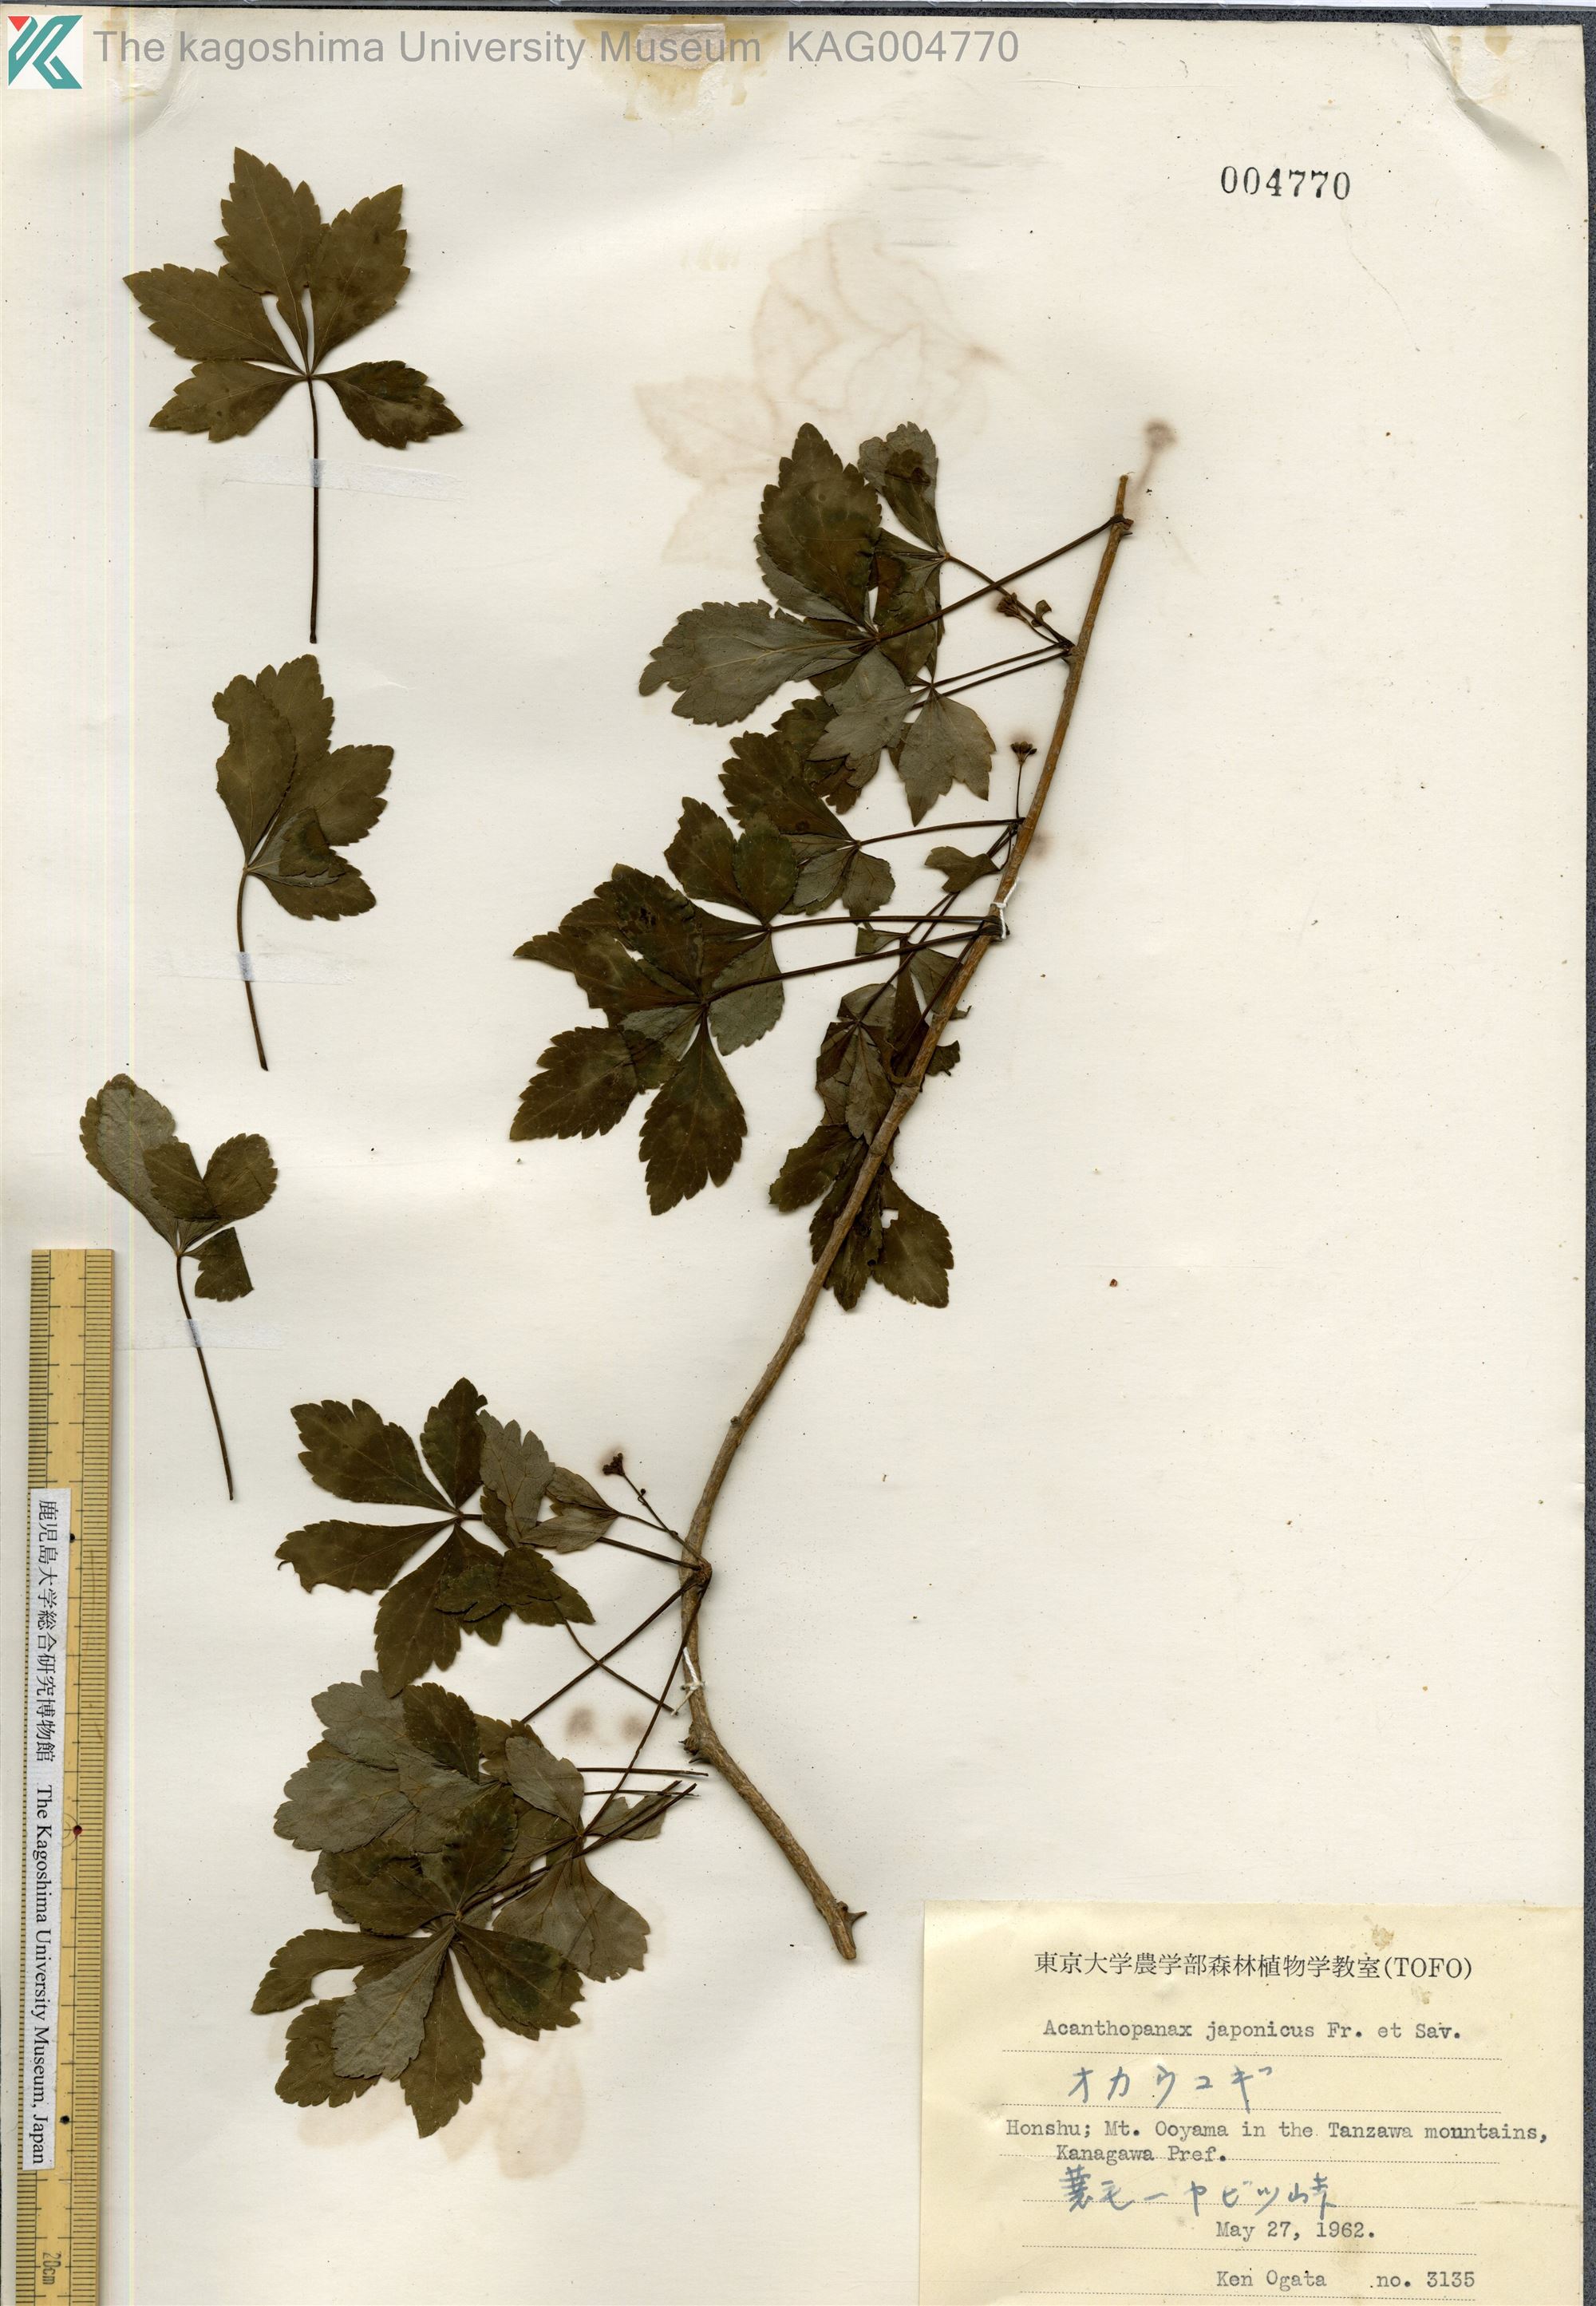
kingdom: Plantae
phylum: Tracheophyta
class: Magnoliopsida
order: Apiales
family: Araliaceae
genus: Eleutherococcus
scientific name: Eleutherococcus japonicus
